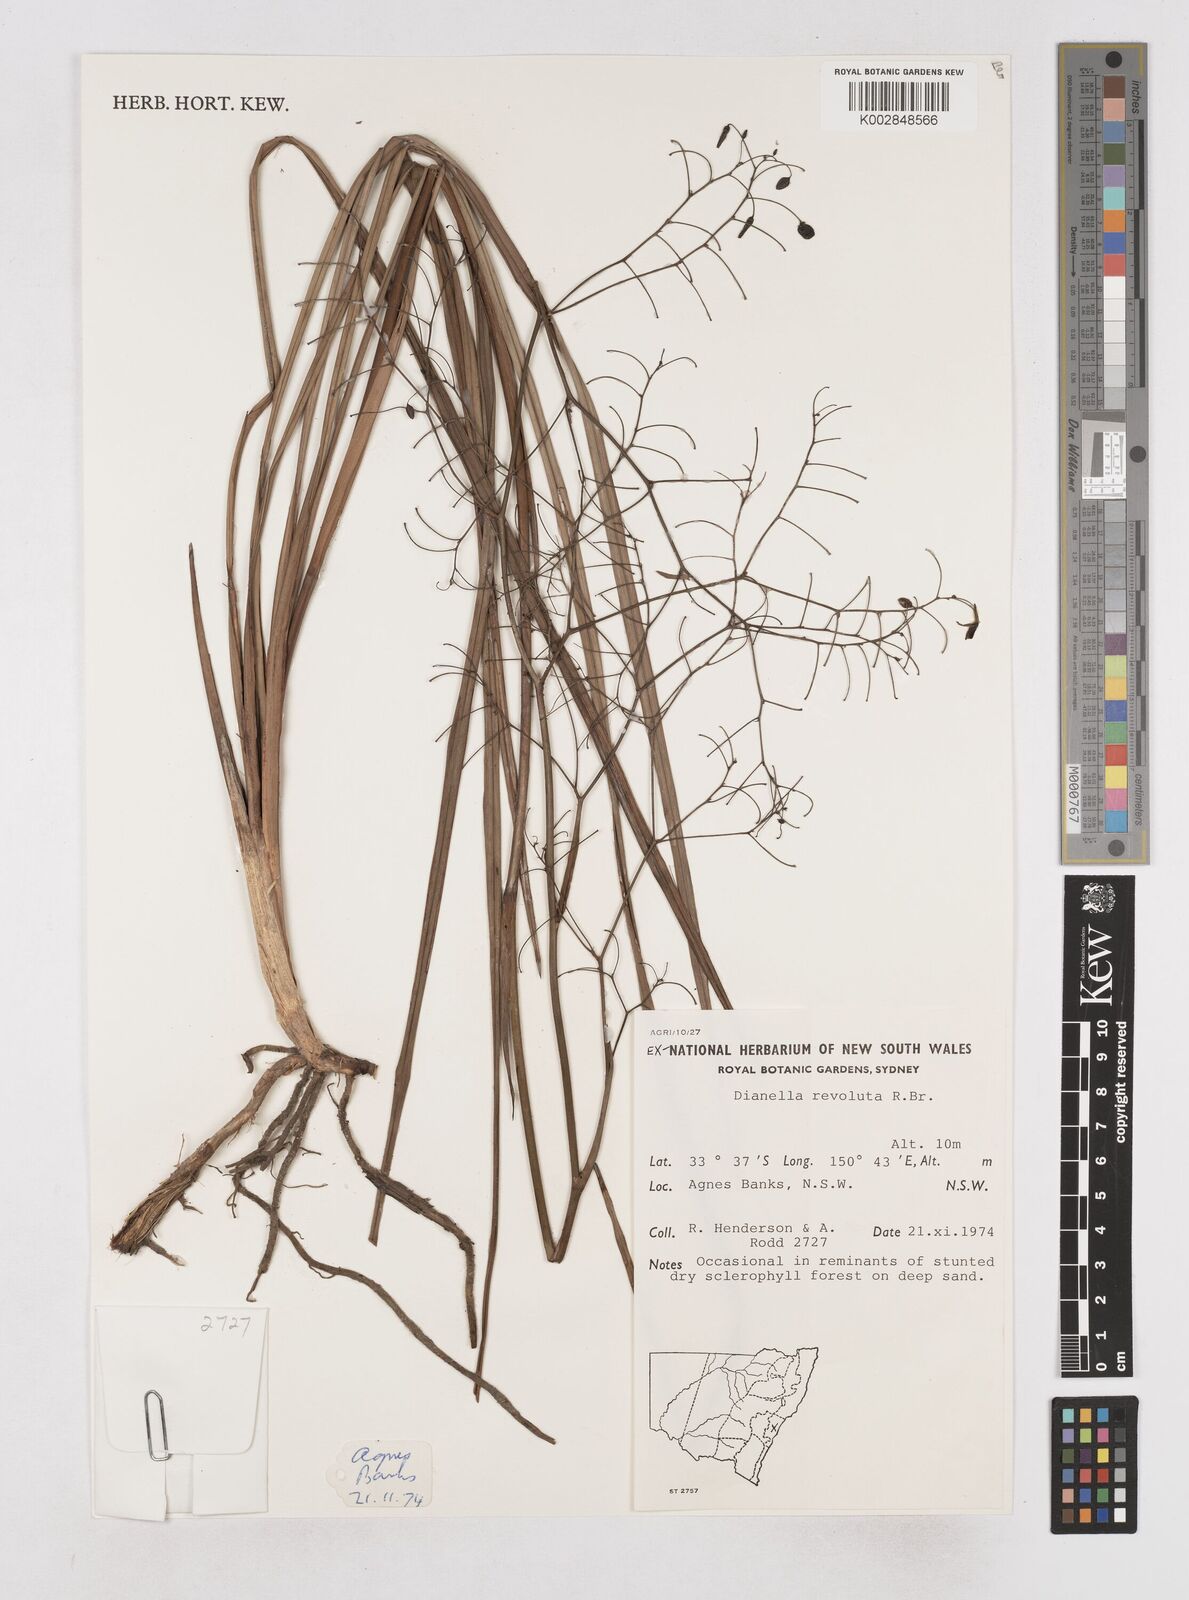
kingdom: Plantae
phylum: Tracheophyta
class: Liliopsida
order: Asparagales
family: Asphodelaceae
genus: Dianella
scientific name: Dianella revoluta
